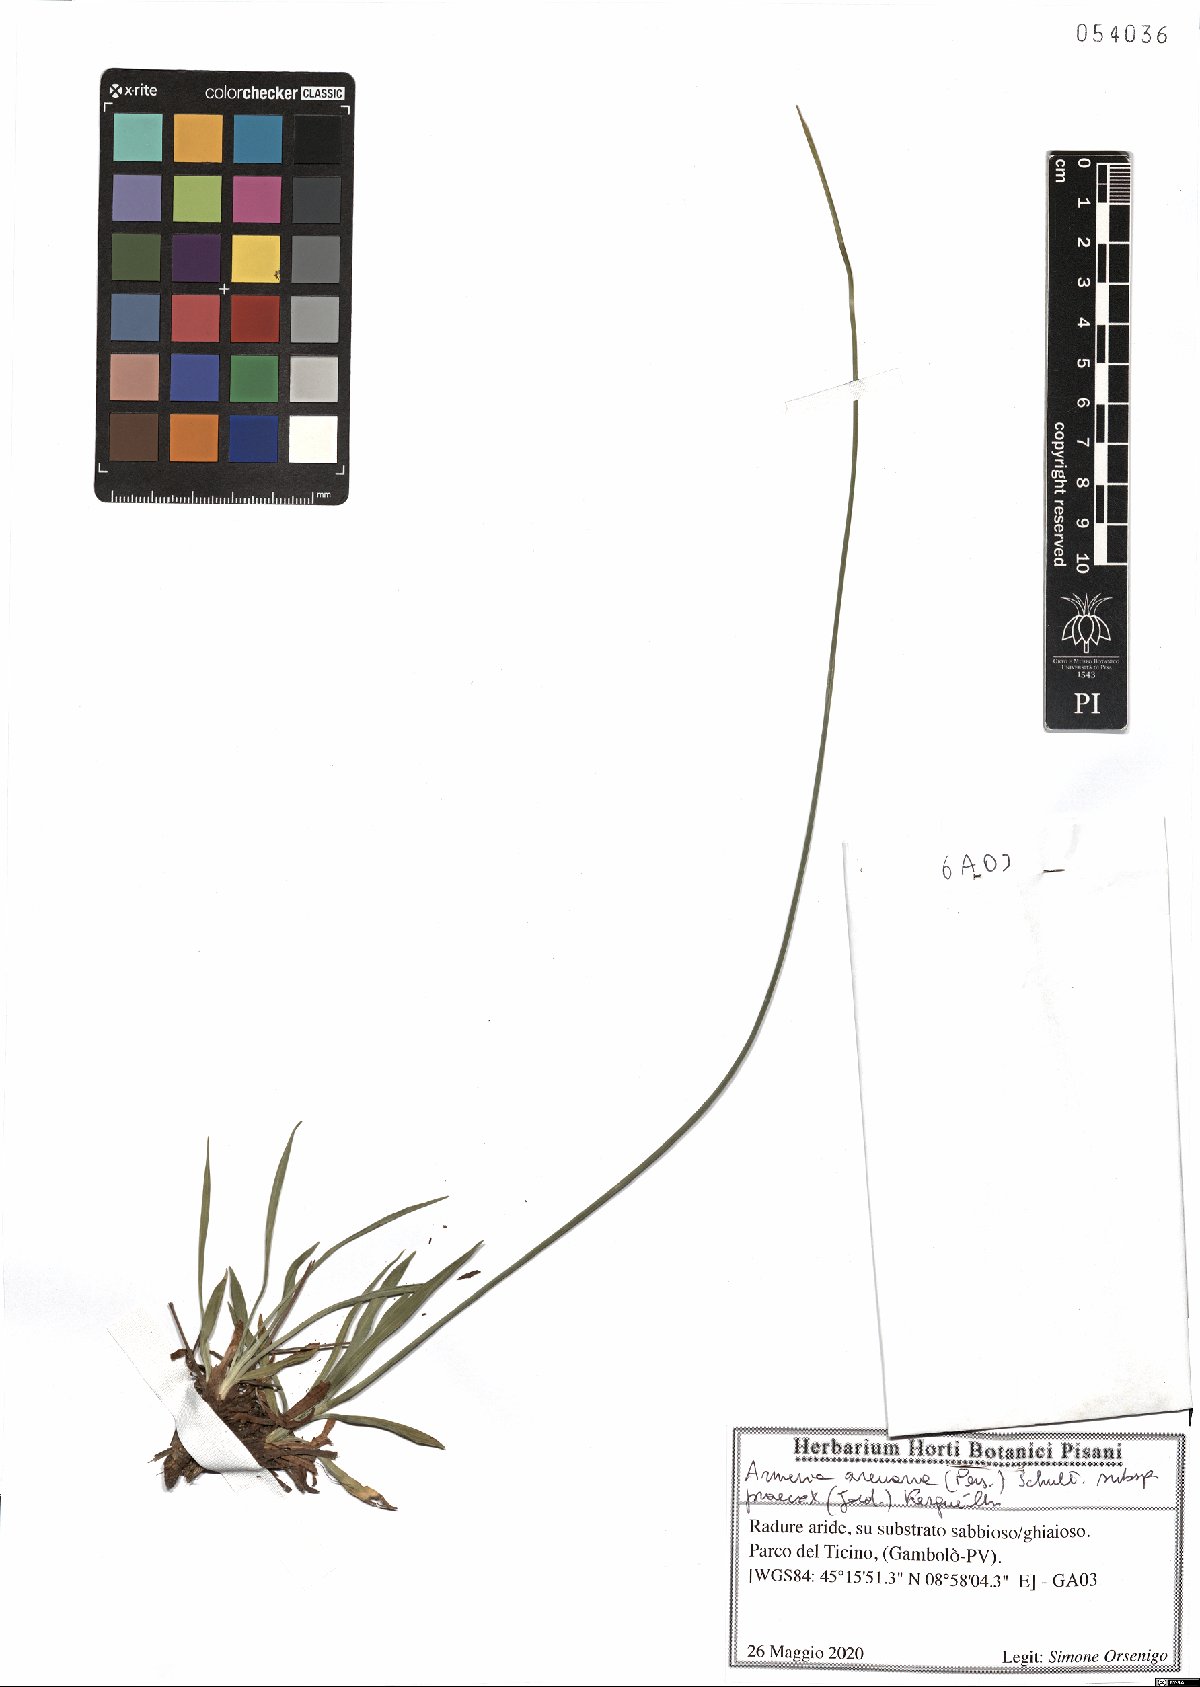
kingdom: Plantae
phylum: Tracheophyta
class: Magnoliopsida
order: Caryophyllales
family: Plumbaginaceae
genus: Armeria
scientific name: Armeria arenaria
